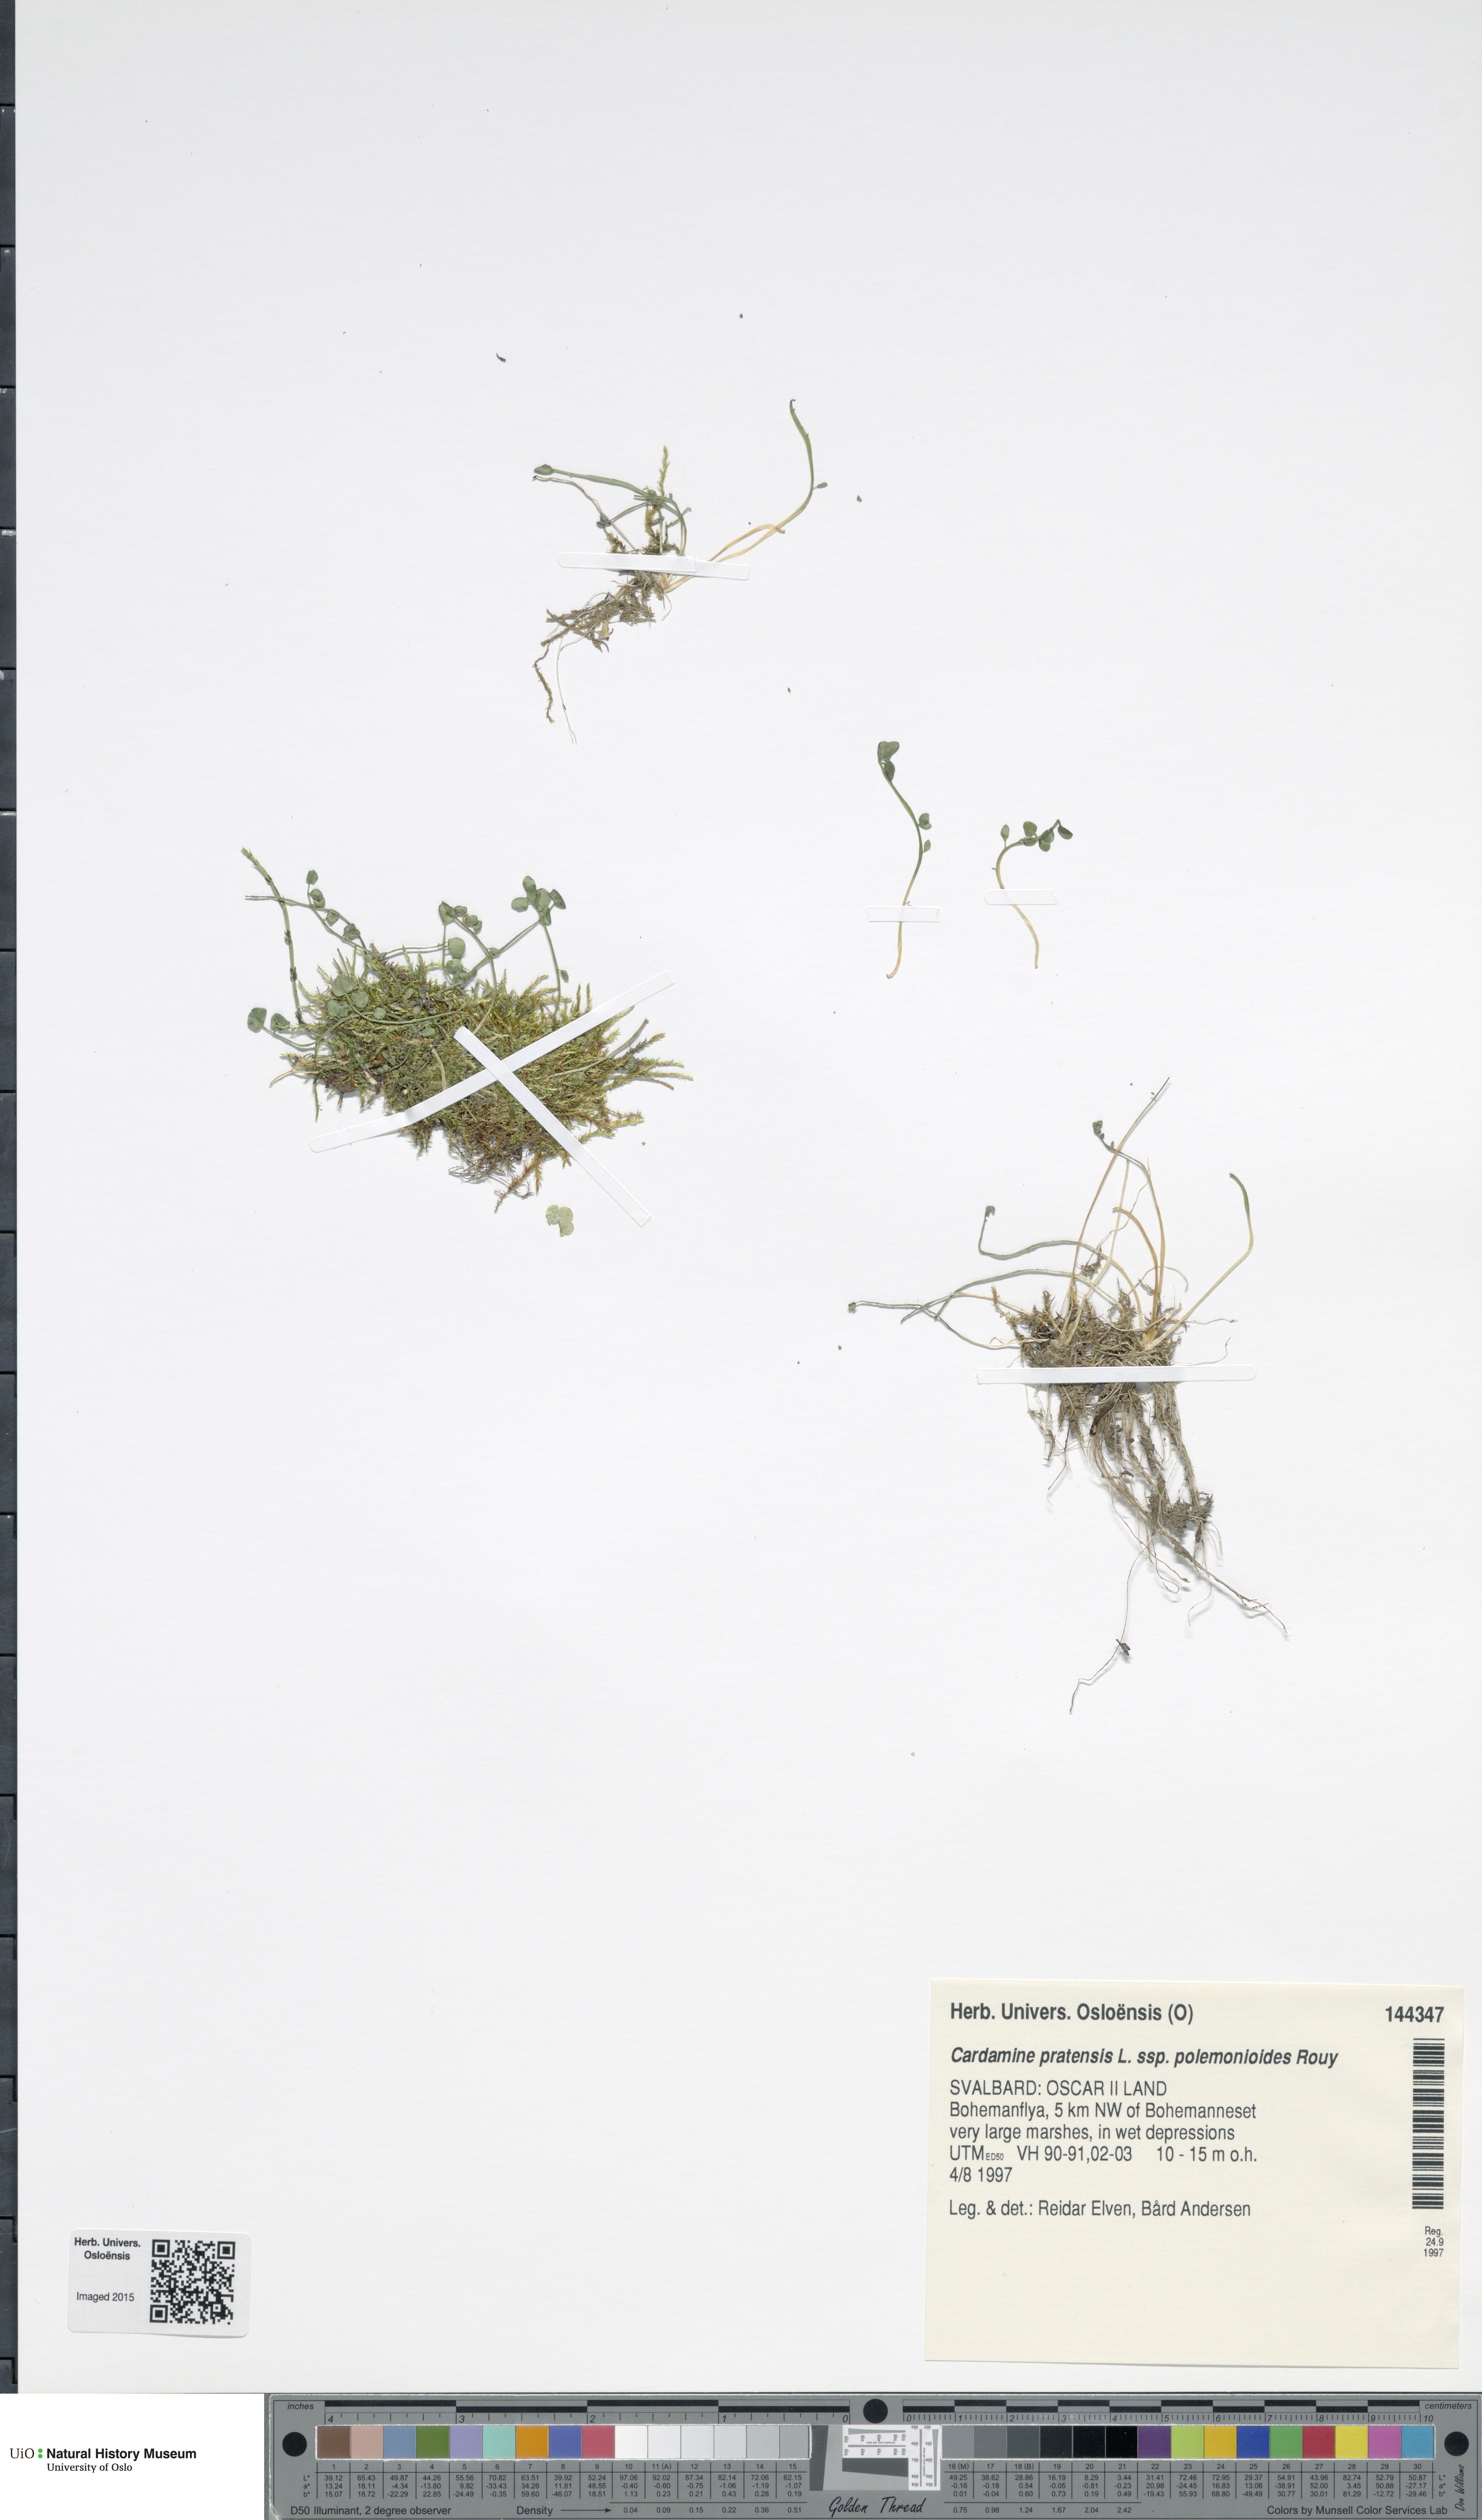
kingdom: Plantae
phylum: Tracheophyta
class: Magnoliopsida
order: Brassicales
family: Brassicaceae
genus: Cardamine
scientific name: Cardamine nymanii
